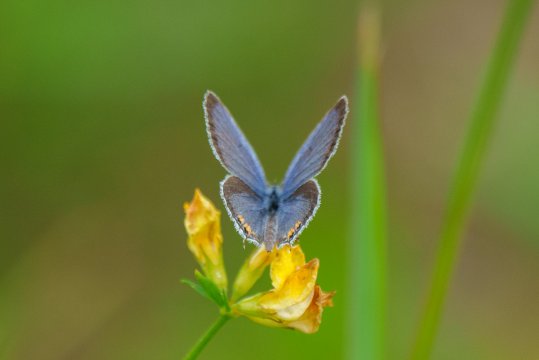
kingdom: Animalia
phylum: Arthropoda
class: Insecta
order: Lepidoptera
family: Lycaenidae
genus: Elkalyce
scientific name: Elkalyce comyntas
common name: Eastern Tailed-Blue
